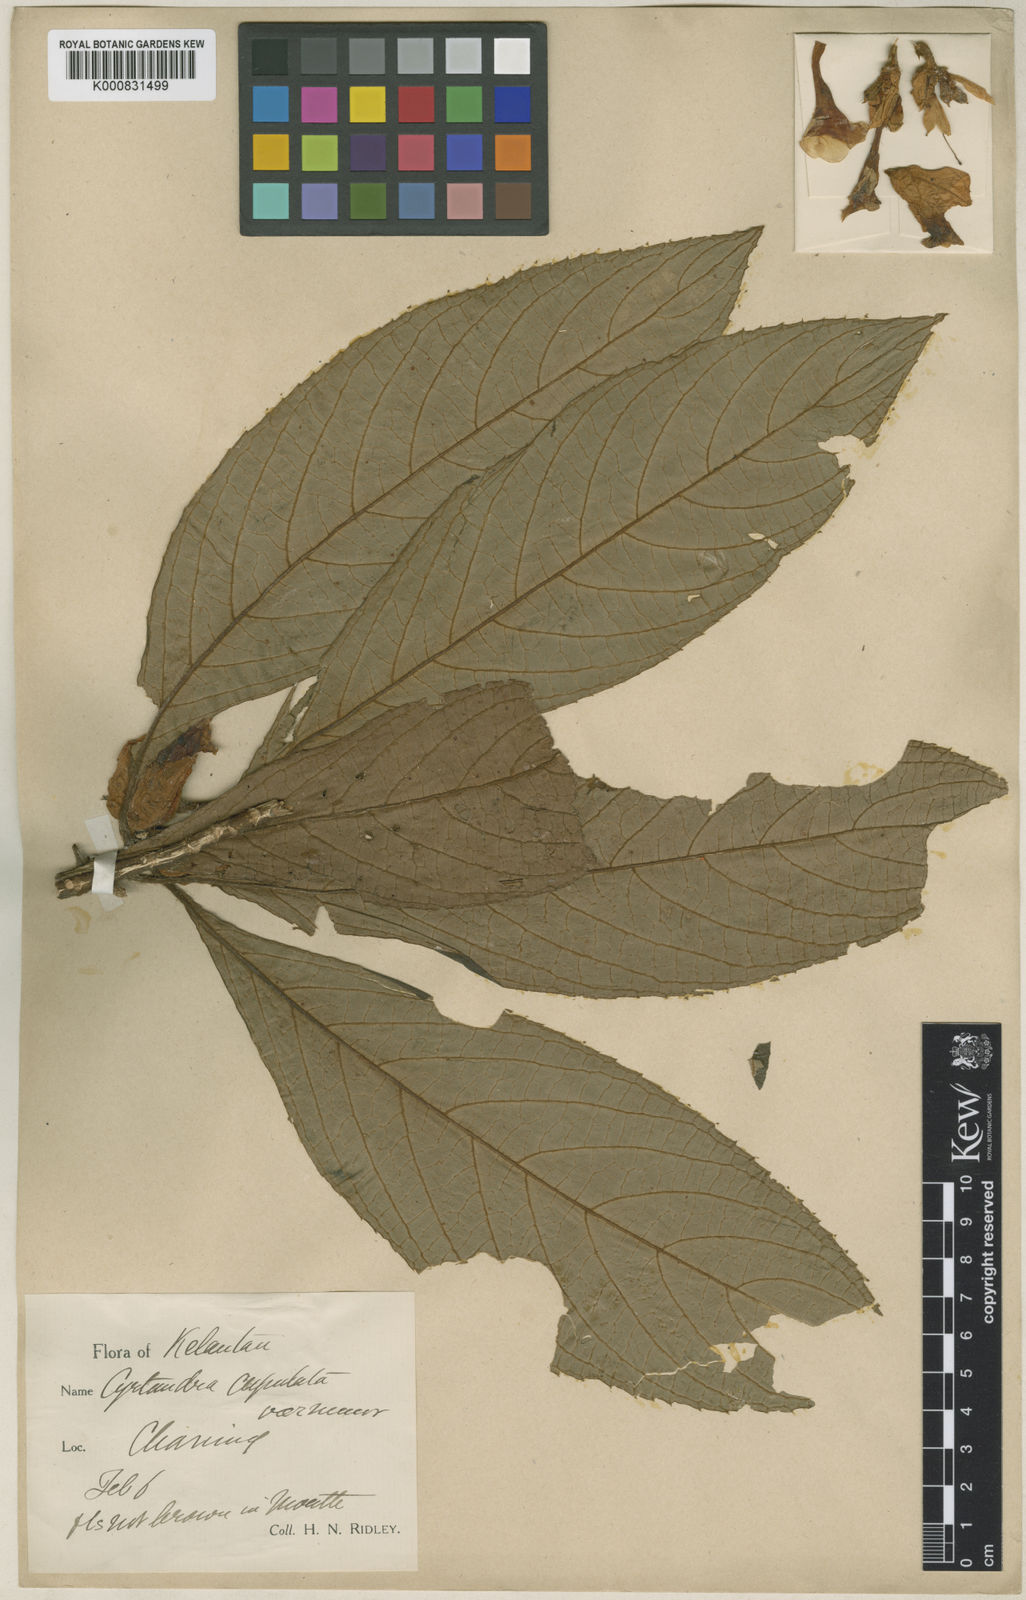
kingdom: Plantae
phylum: Tracheophyta
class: Magnoliopsida
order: Lamiales
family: Gesneriaceae
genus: Cyrtandra
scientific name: Cyrtandra cupulata
